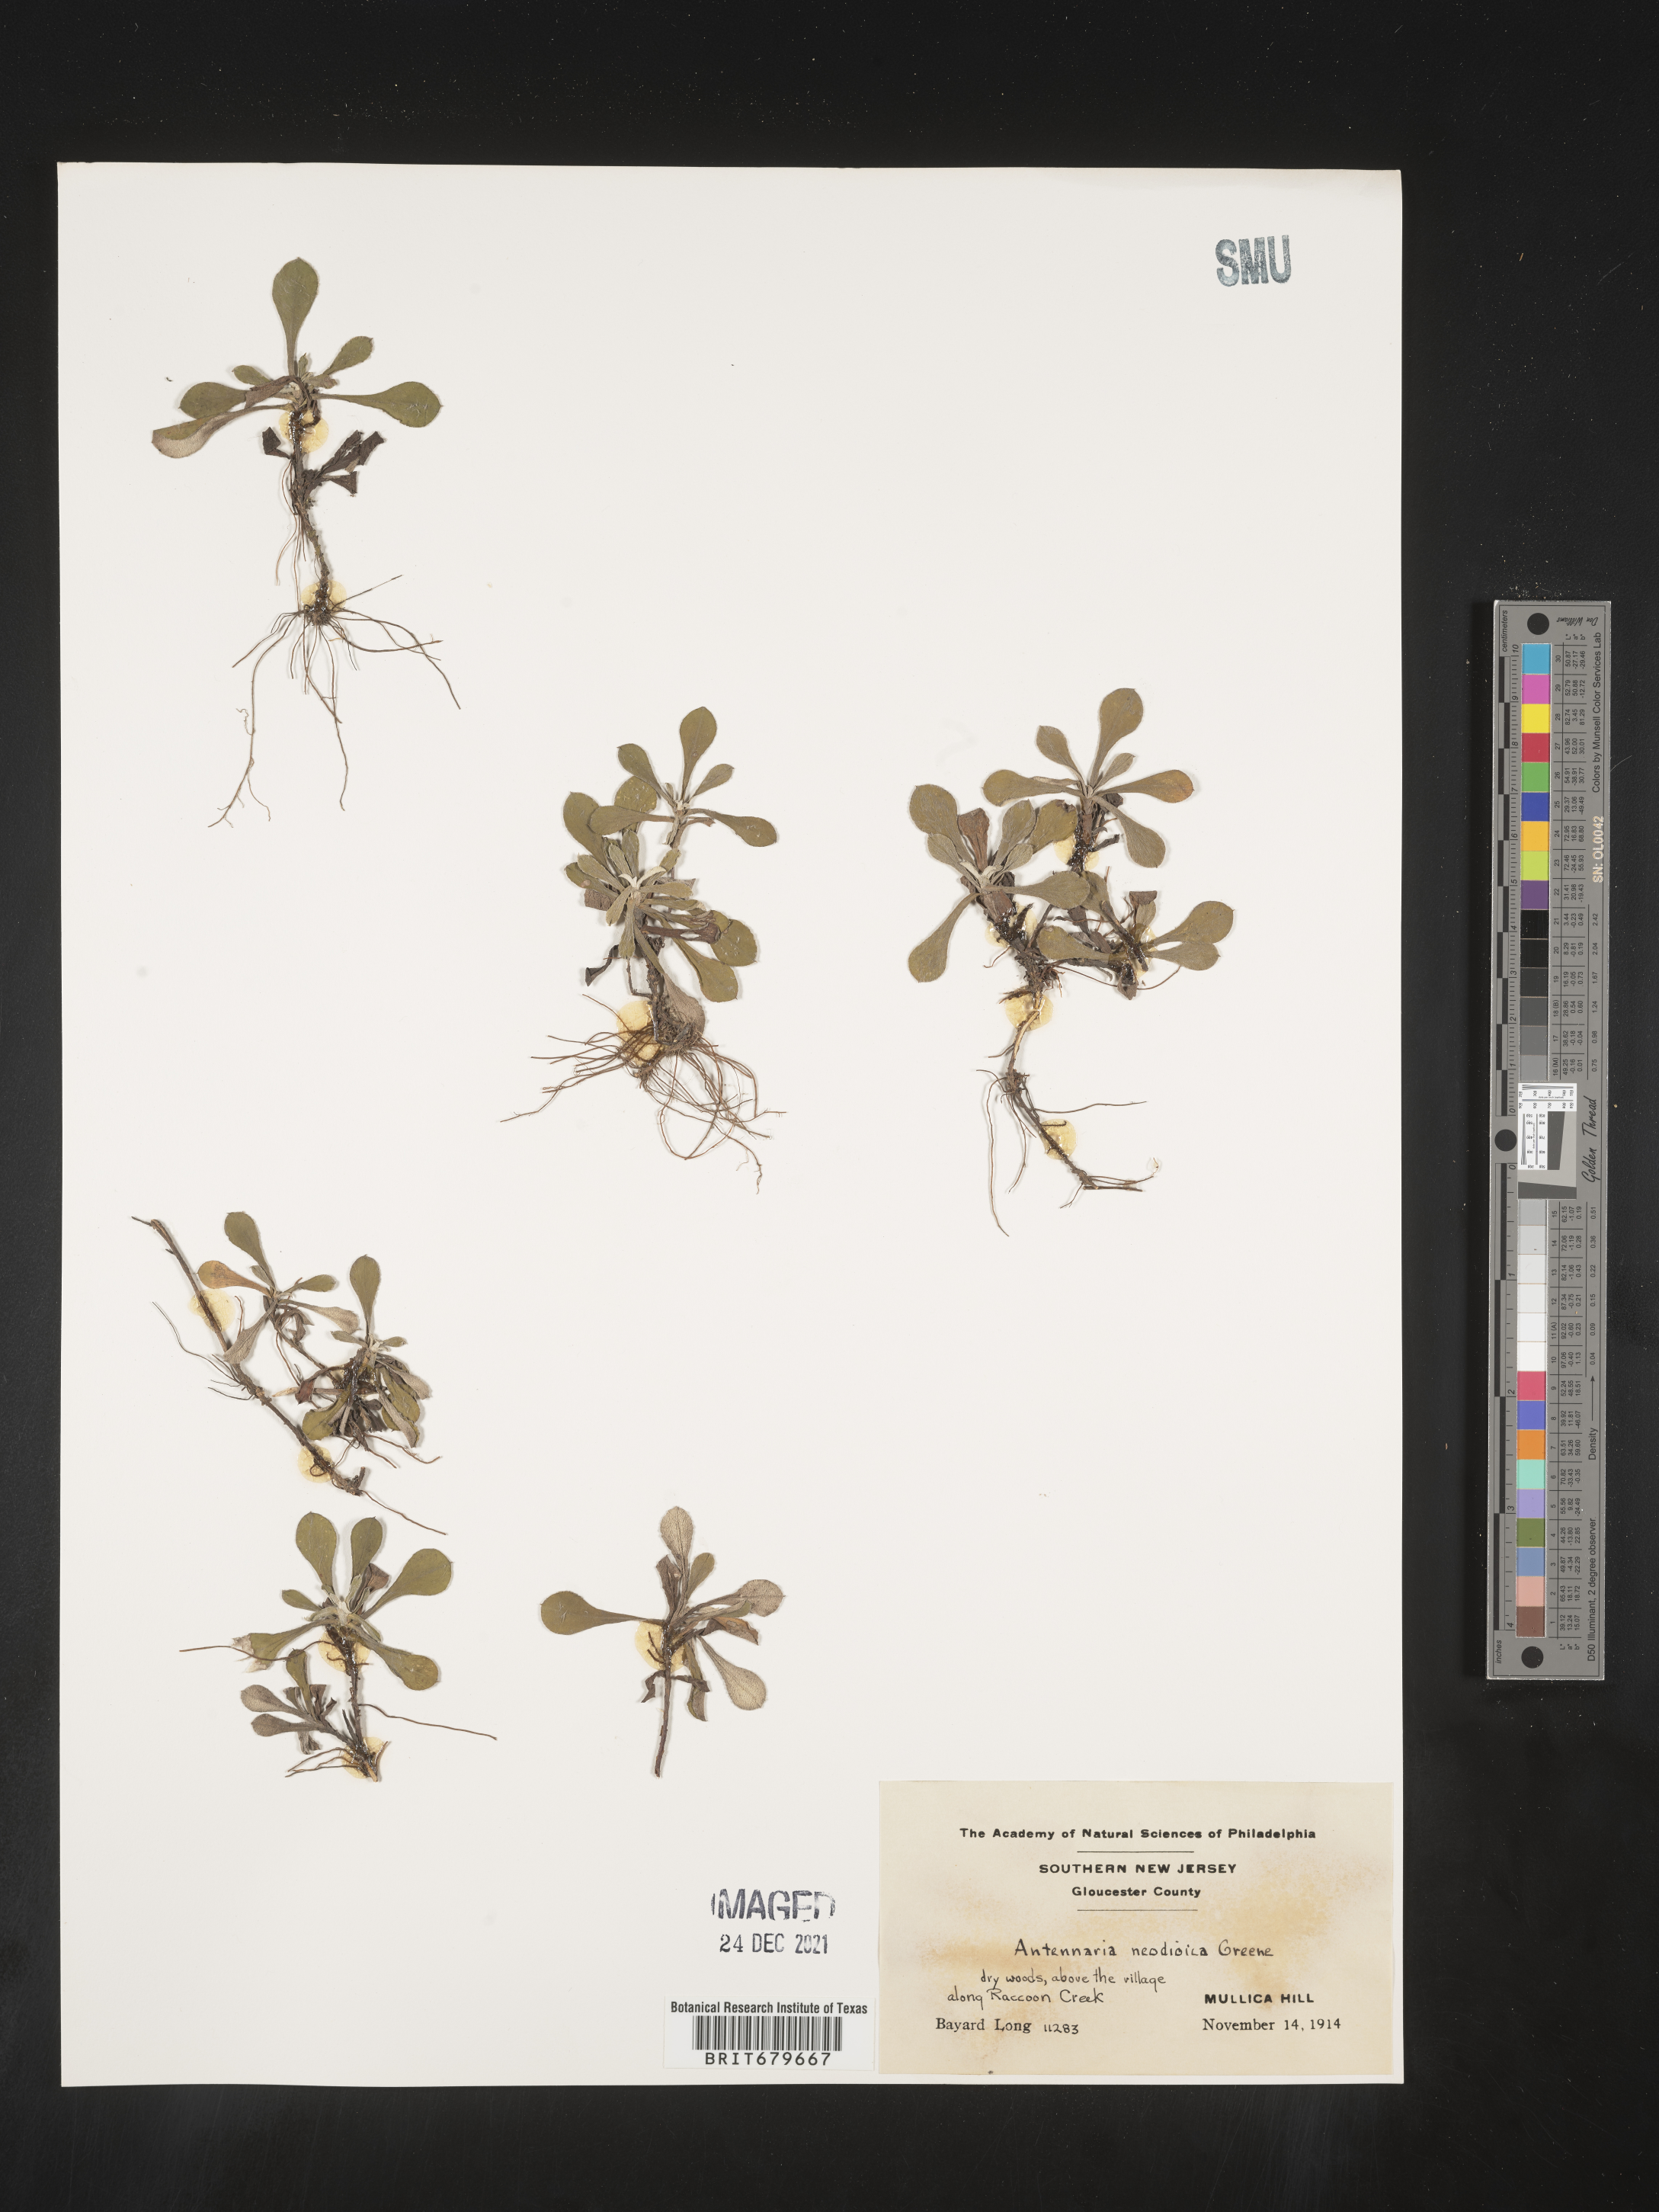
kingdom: Plantae
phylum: Tracheophyta
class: Magnoliopsida
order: Asterales
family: Asteraceae
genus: Antennaria
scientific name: Antennaria howellii
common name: Howell's pussytoes
